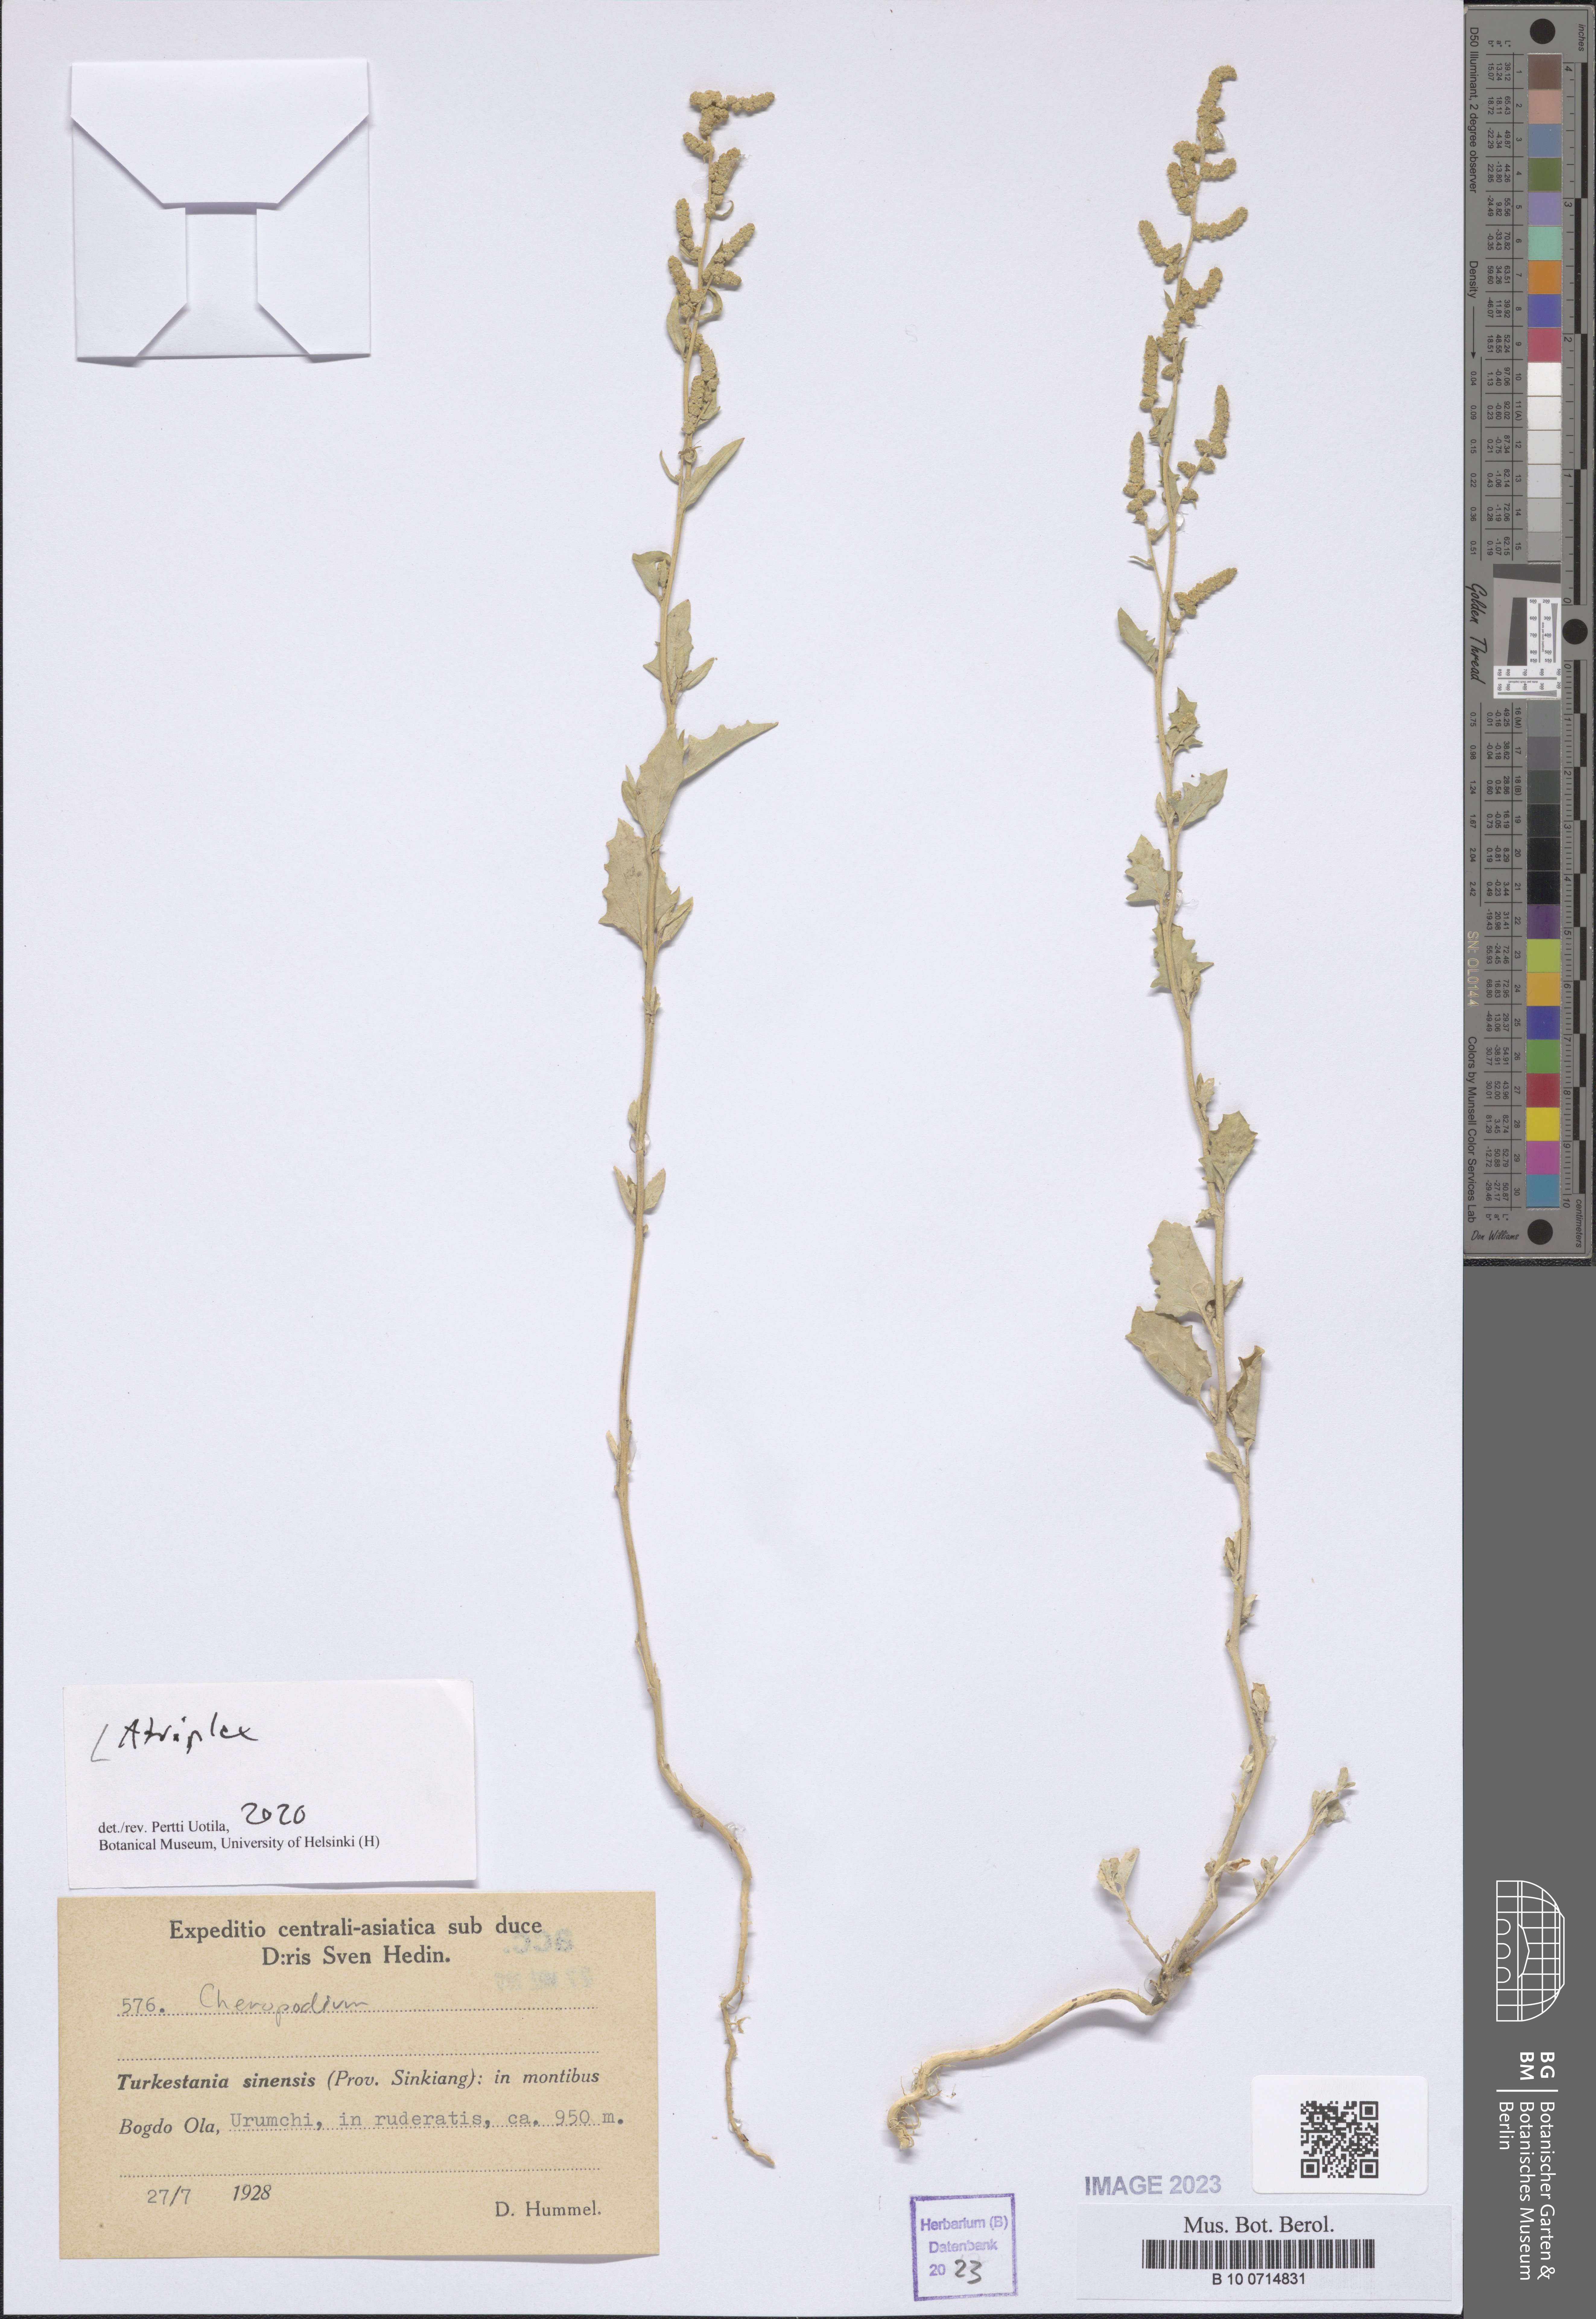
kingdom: Plantae
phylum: Tracheophyta
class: Magnoliopsida
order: Caryophyllales
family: Amaranthaceae
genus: Atriplex
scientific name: Atriplex
